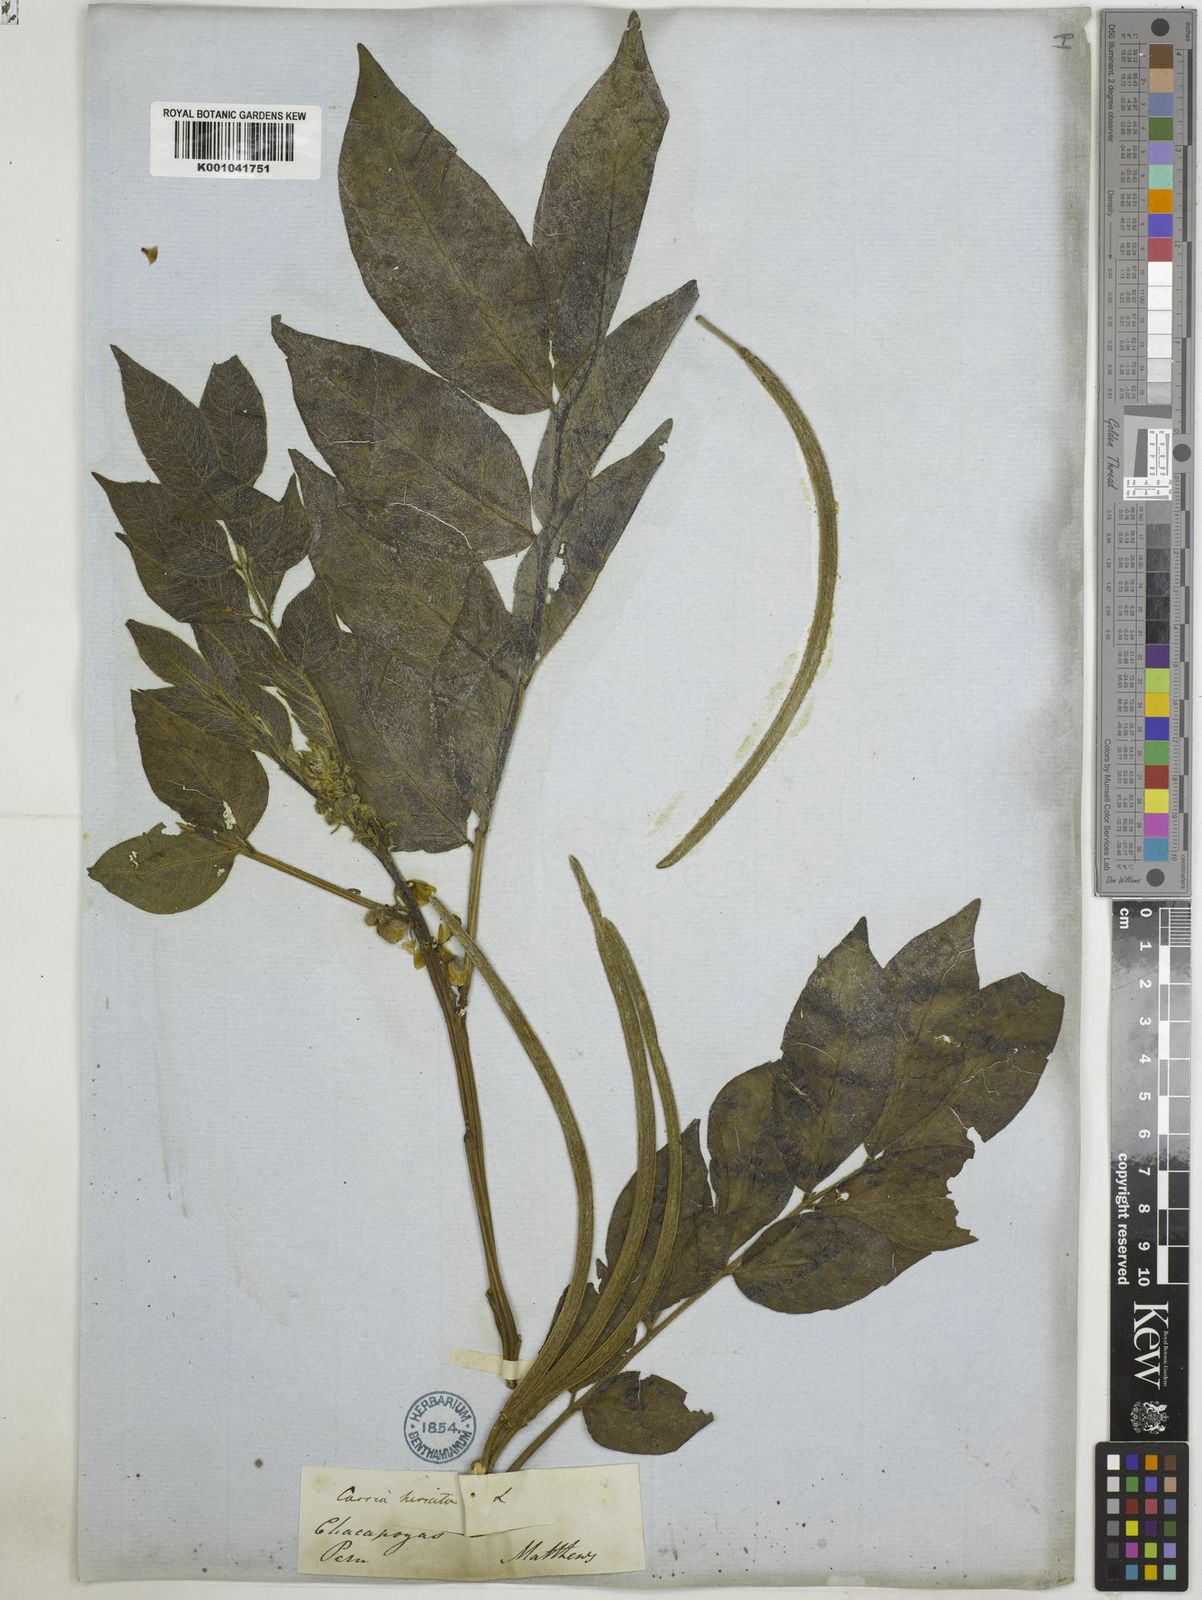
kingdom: Plantae
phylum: Tracheophyta
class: Magnoliopsida
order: Fabales
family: Fabaceae
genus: Senna
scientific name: Senna hirsuta
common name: Woolly senna
